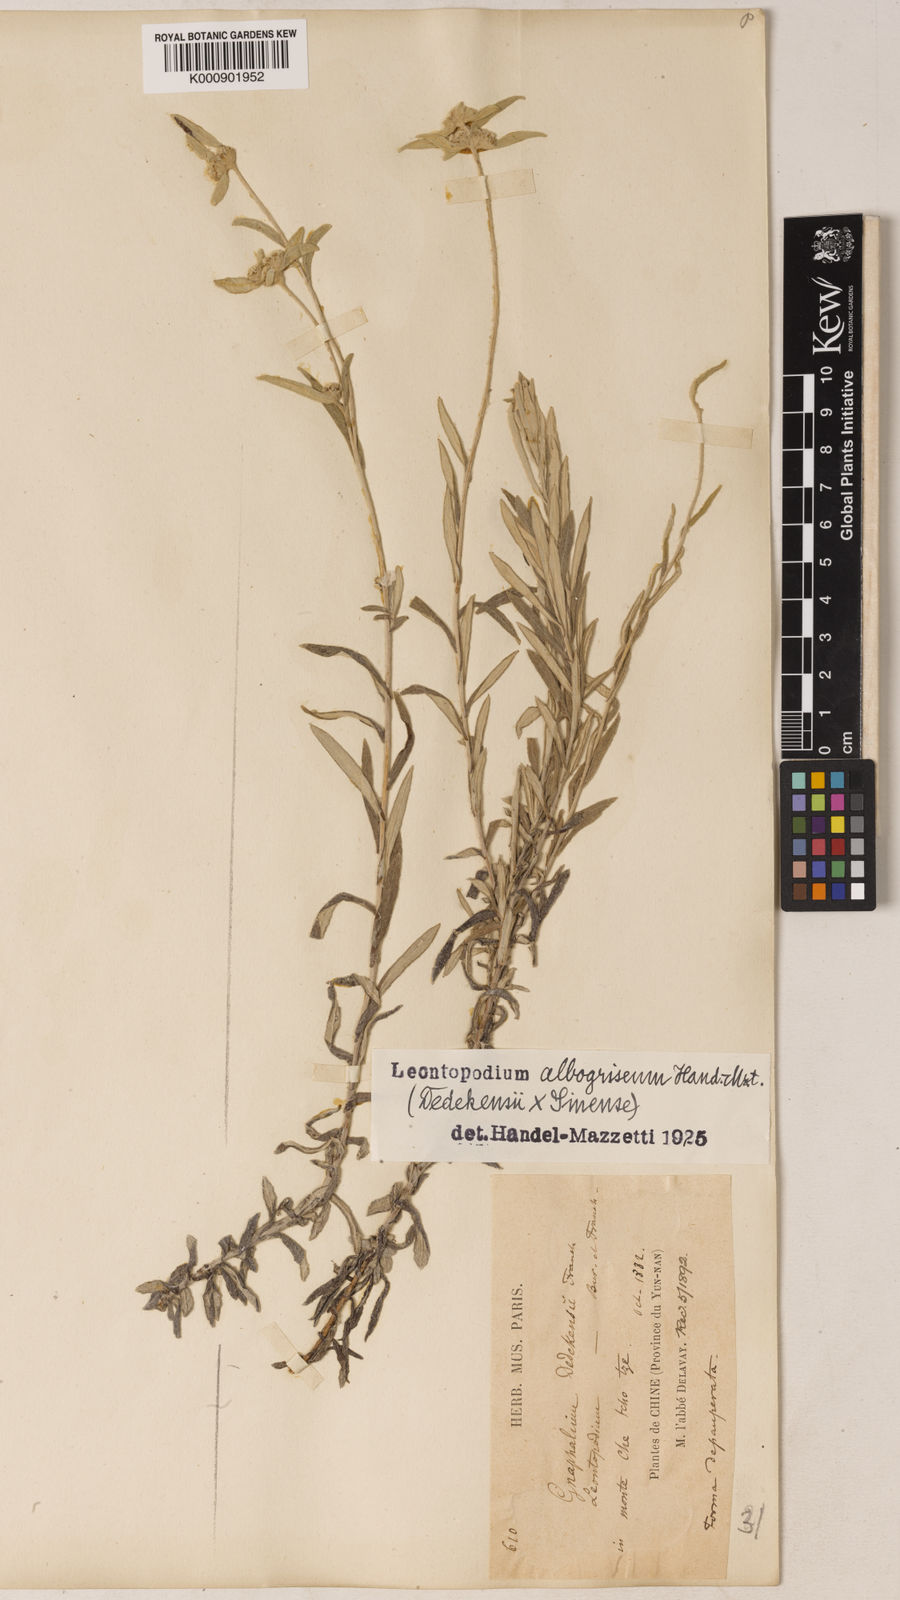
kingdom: Plantae
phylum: Tracheophyta
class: Magnoliopsida
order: Asterales
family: Asteraceae
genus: Leontopodium
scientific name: Leontopodium albogriseum
